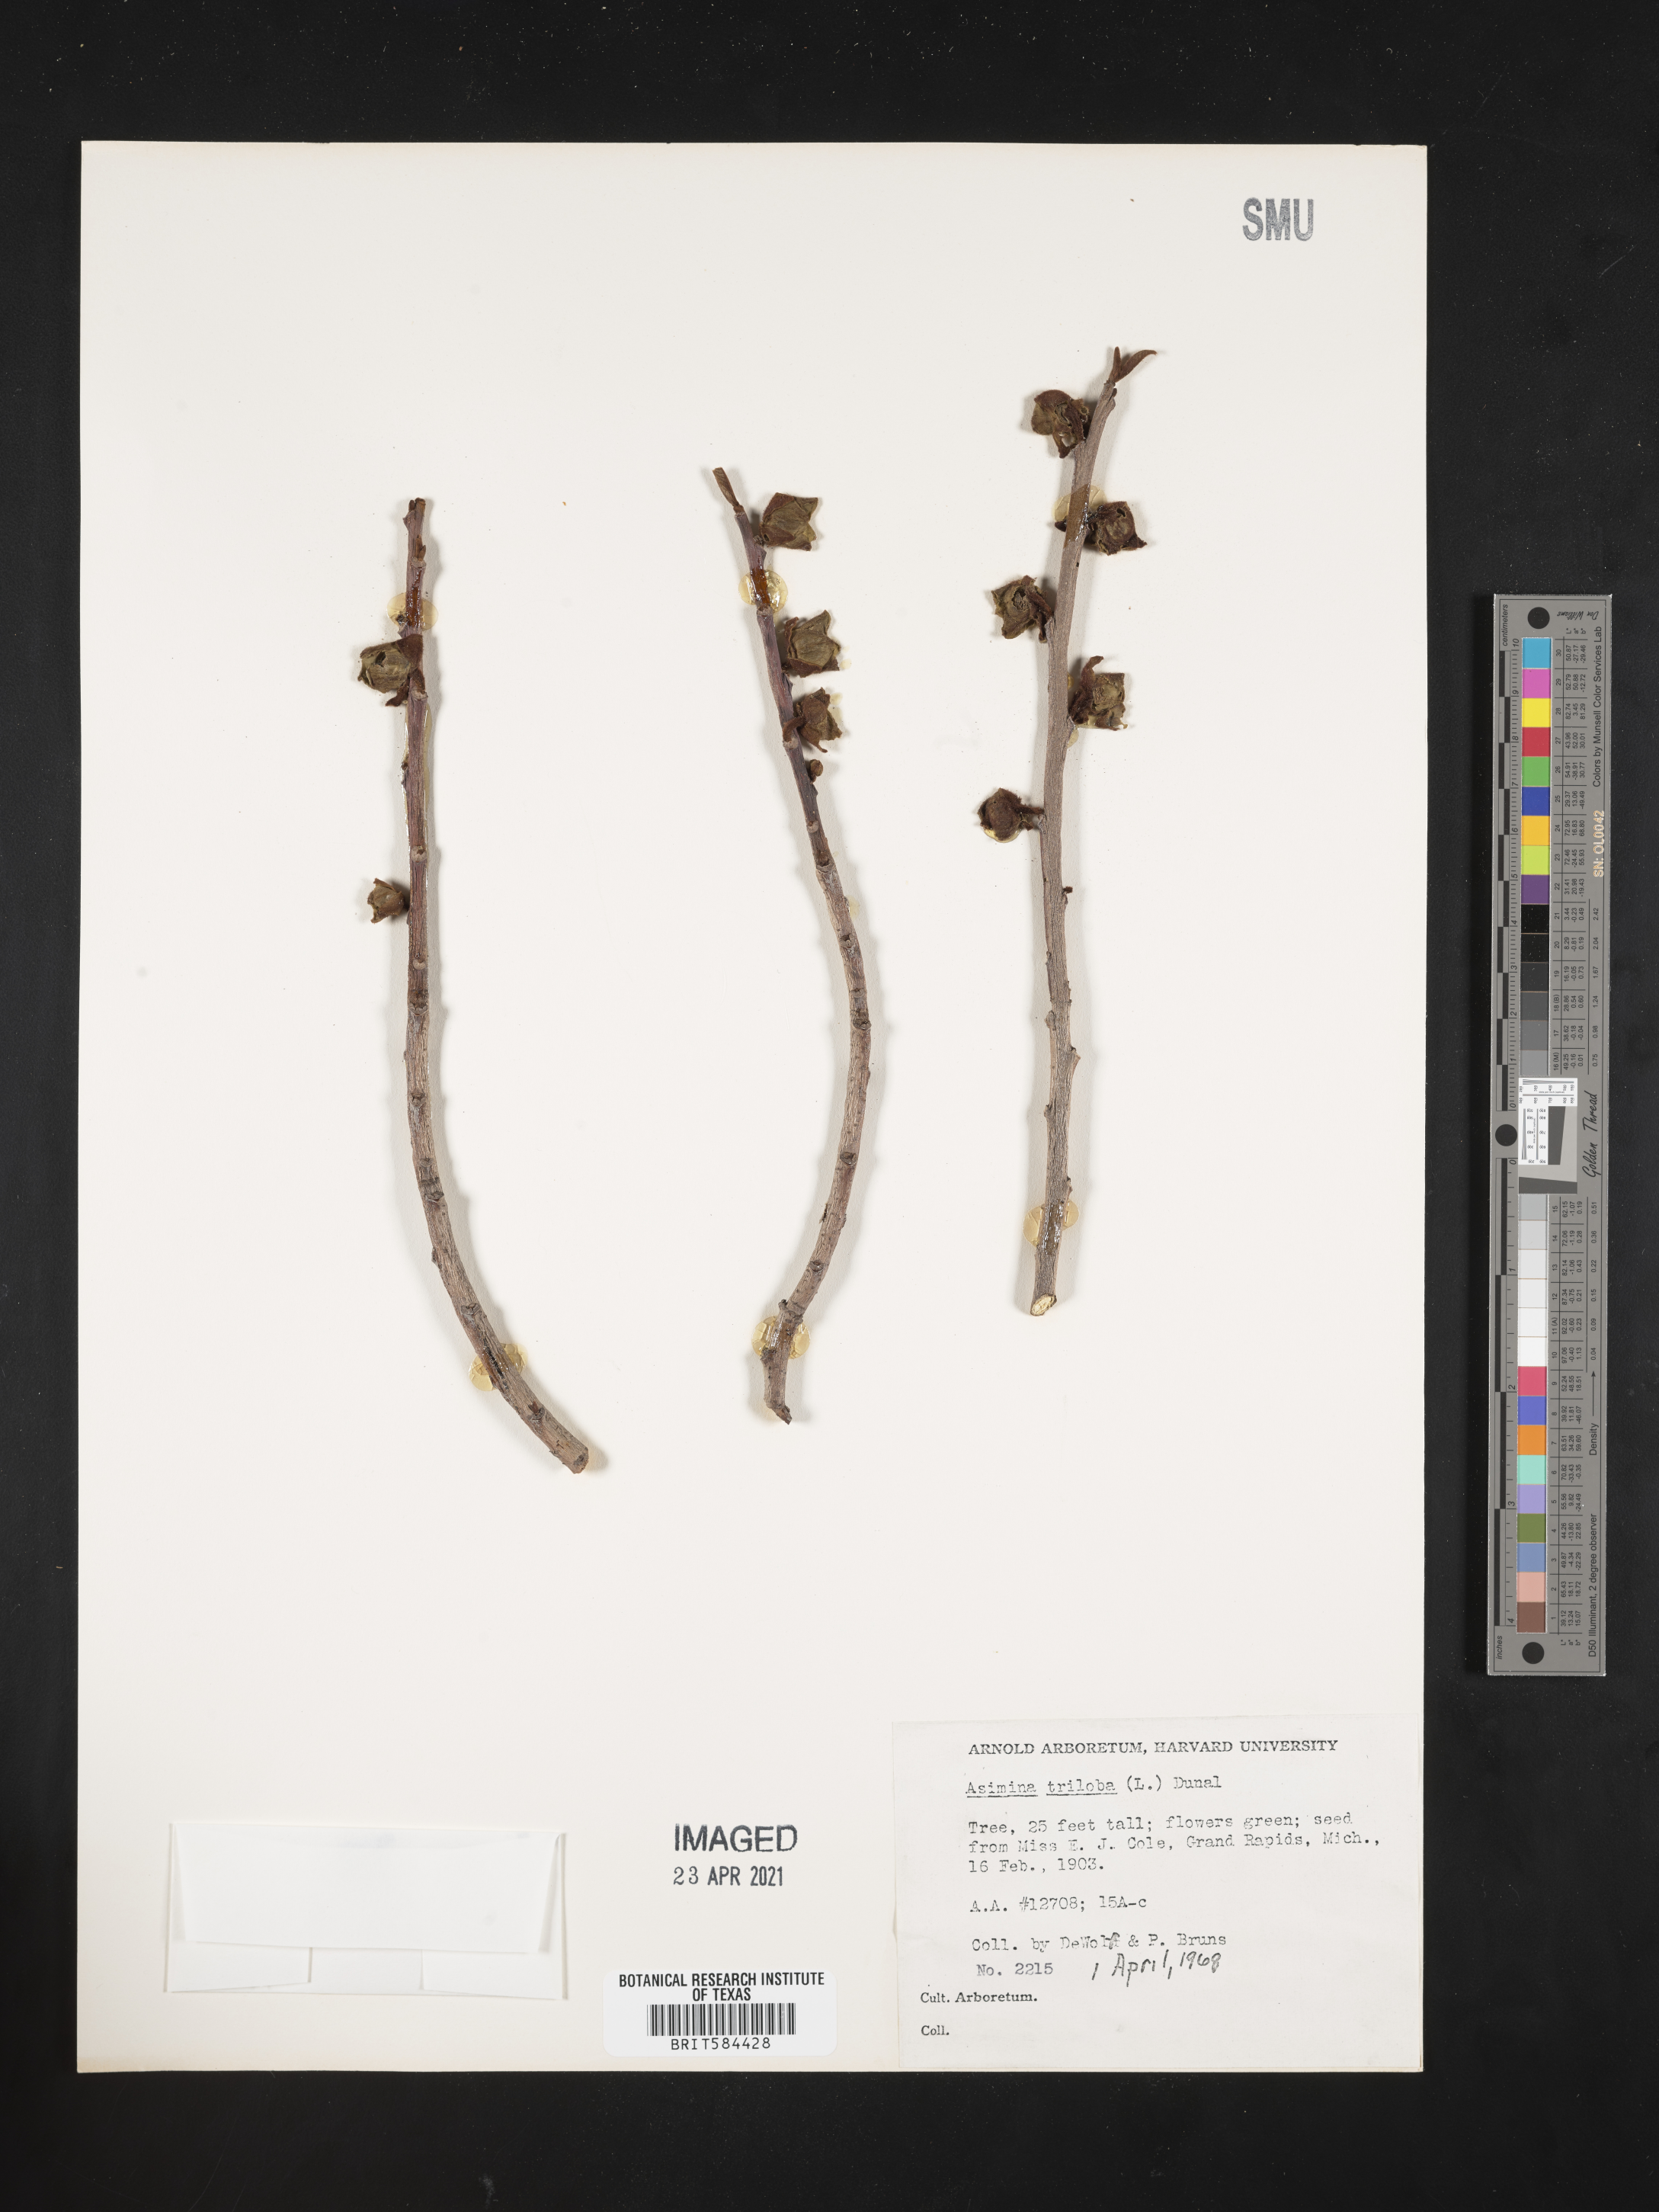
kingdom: Plantae
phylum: Tracheophyta
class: Magnoliopsida
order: Magnoliales
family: Annonaceae
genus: Asimina
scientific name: Asimina triloba
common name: Dog-banana
